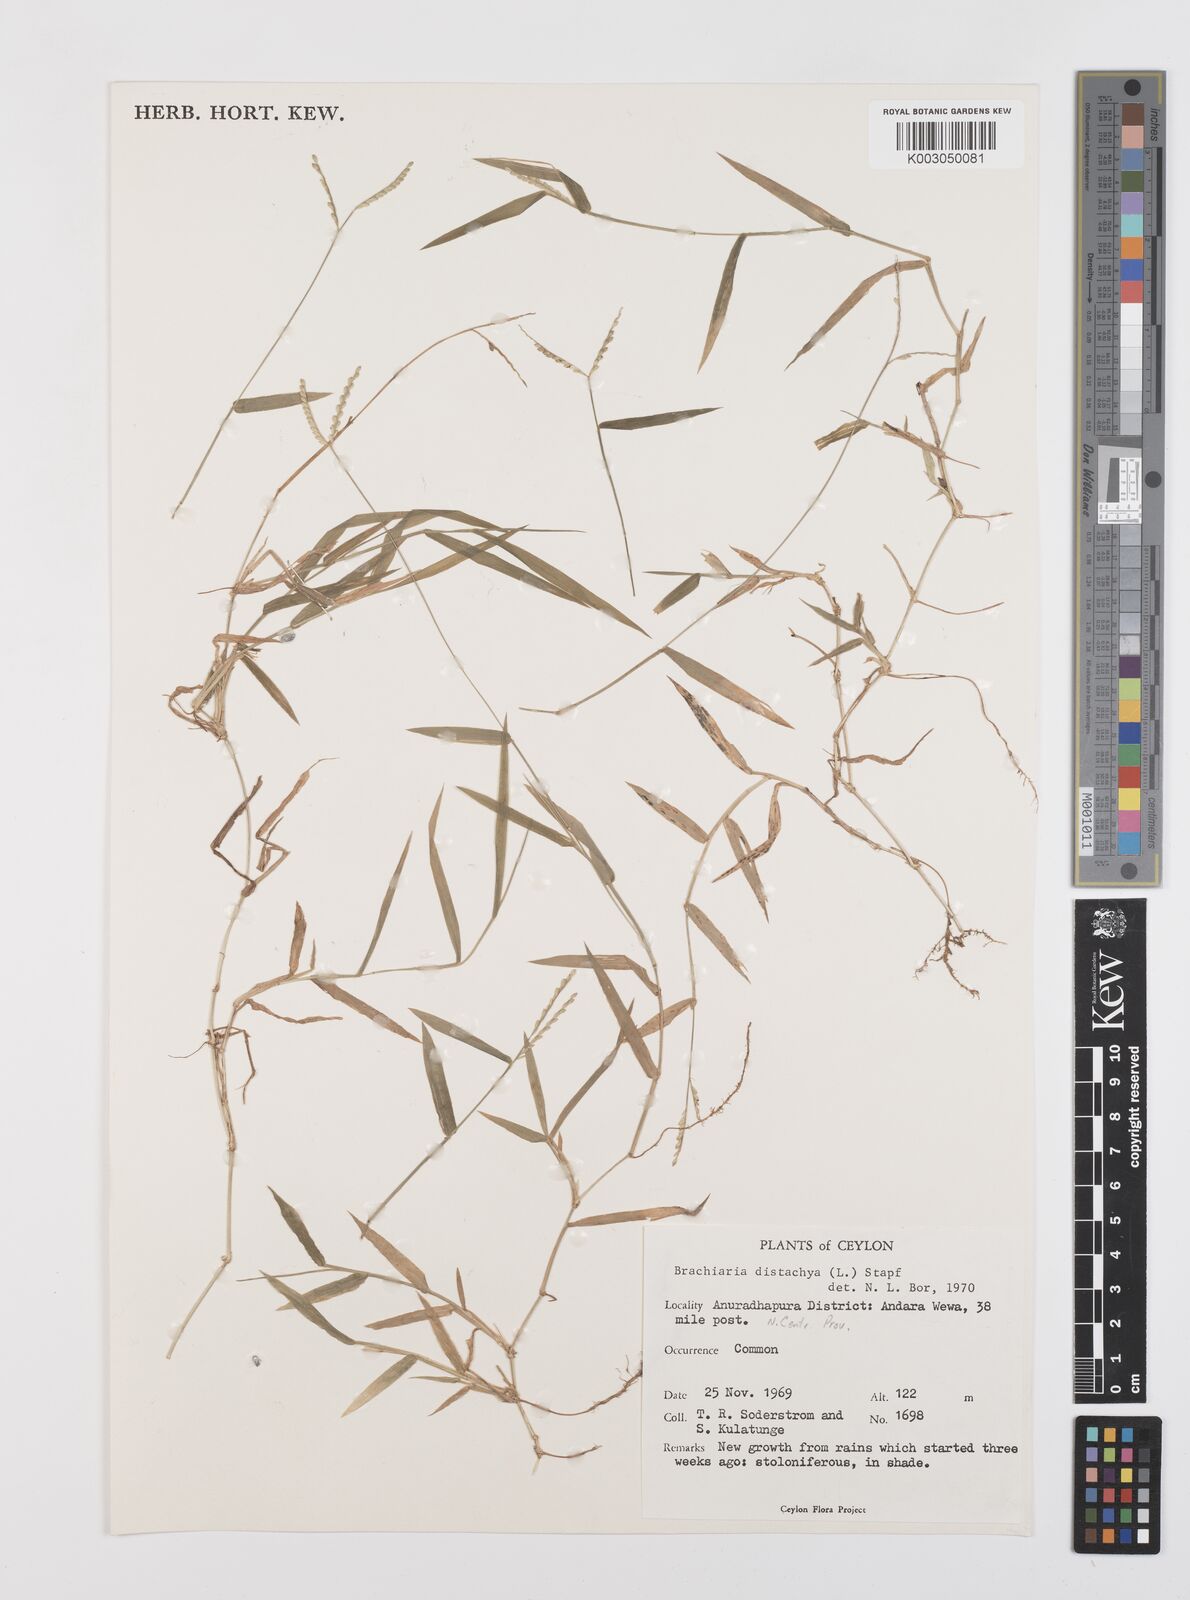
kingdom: Plantae
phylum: Tracheophyta
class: Liliopsida
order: Poales
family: Poaceae
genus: Urochloa
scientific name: Urochloa distachyos
